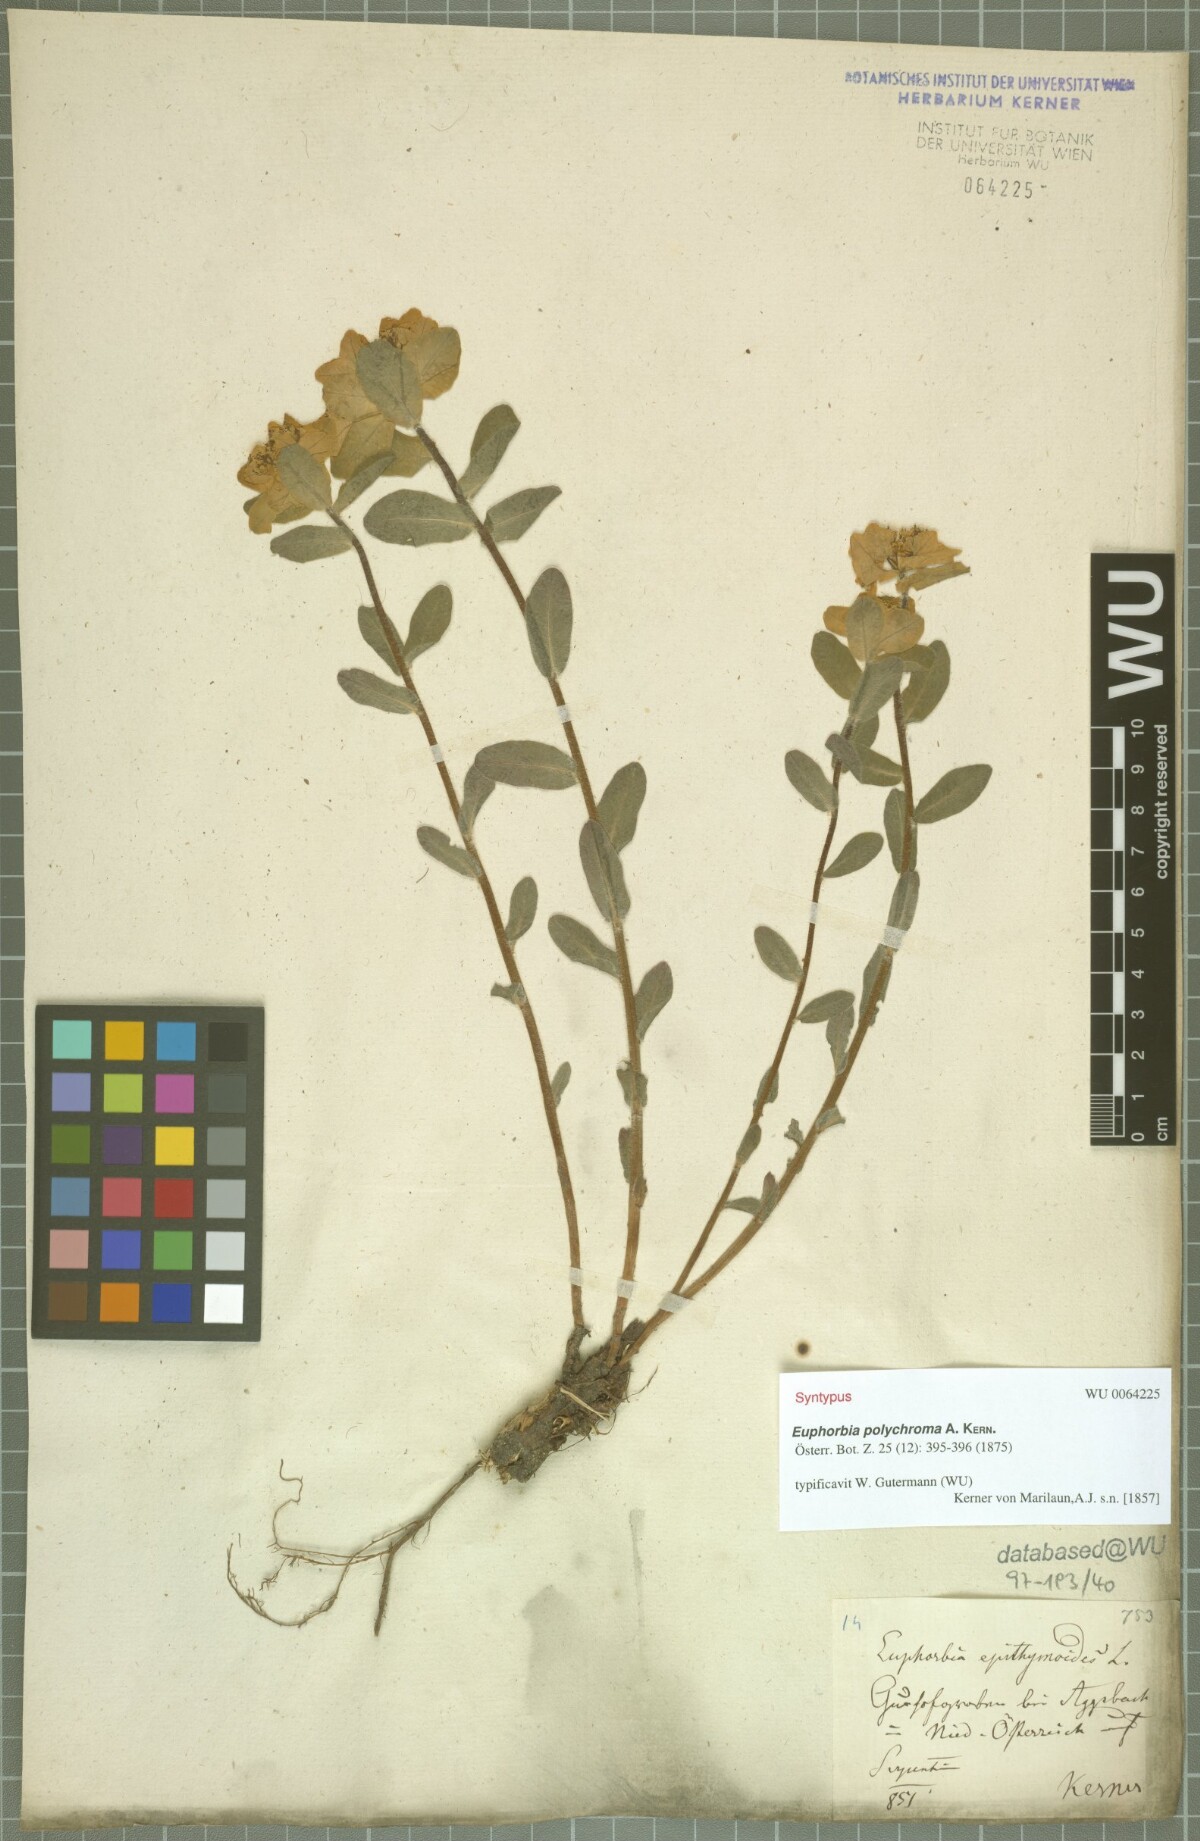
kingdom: Plantae
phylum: Tracheophyta
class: Magnoliopsida
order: Malpighiales
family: Euphorbiaceae
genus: Euphorbia
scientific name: Euphorbia epithymoides
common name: Cushion spurge
